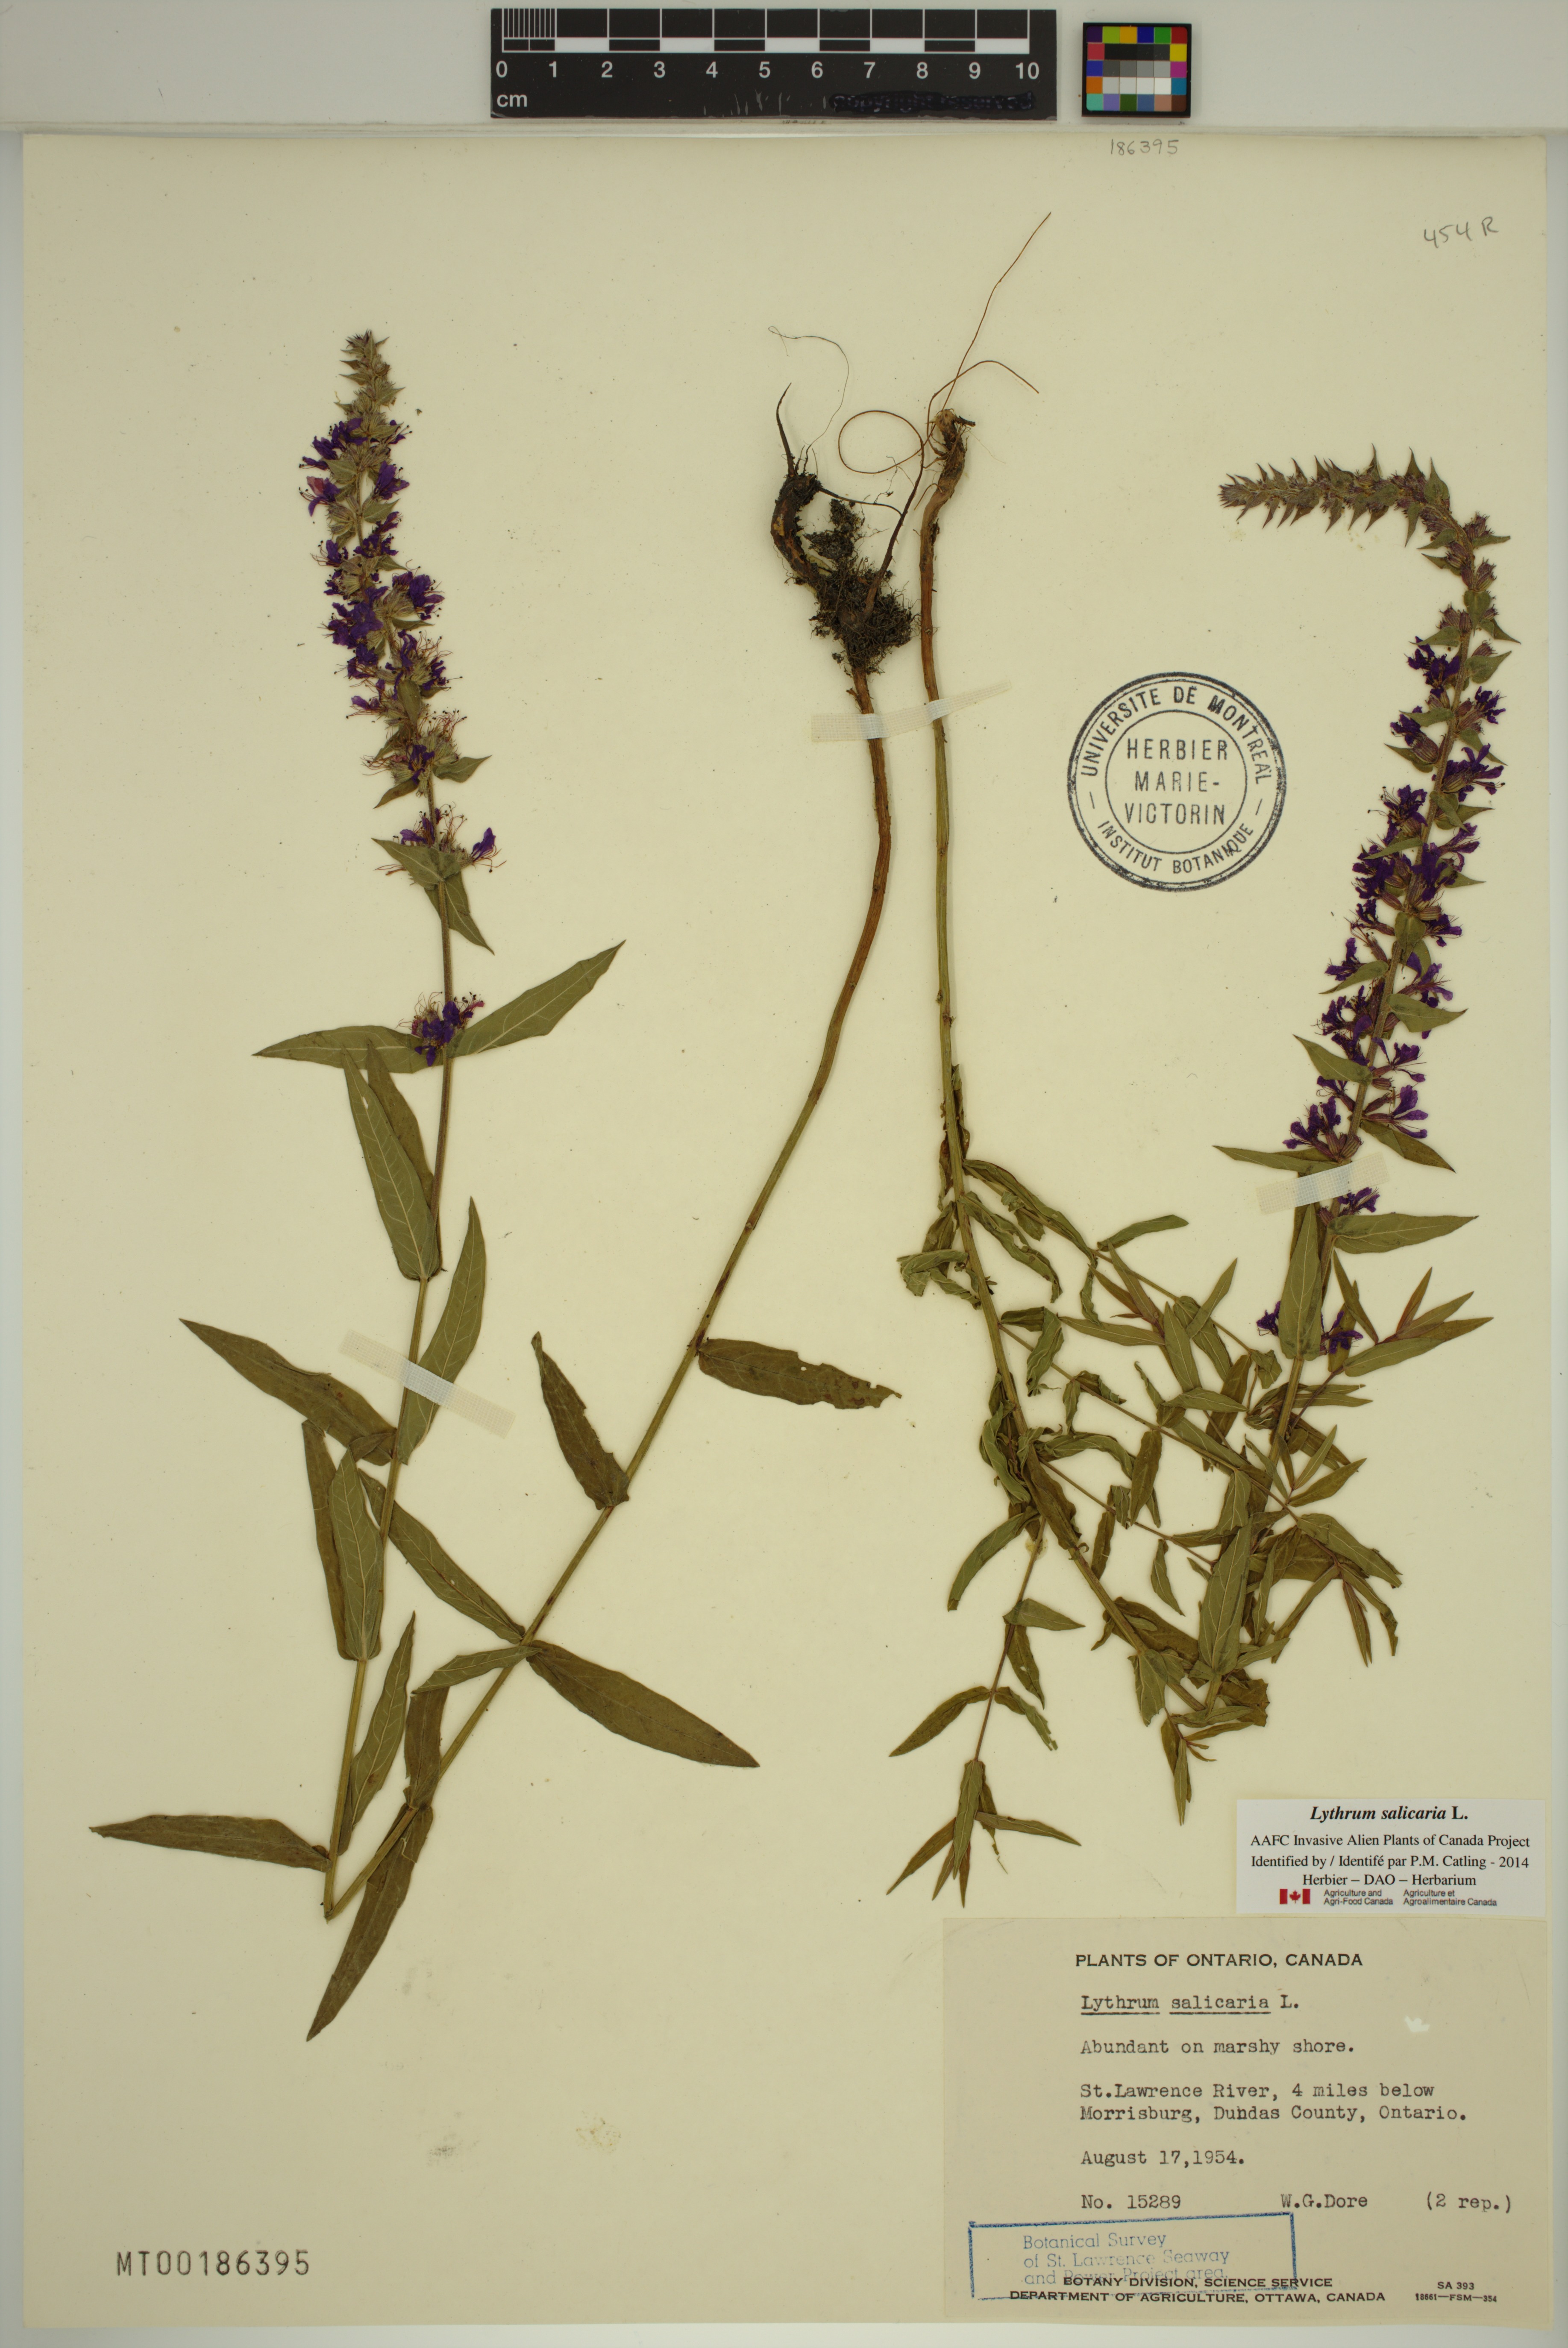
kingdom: Plantae
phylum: Tracheophyta
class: Magnoliopsida
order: Myrtales
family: Lythraceae
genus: Lythrum
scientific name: Lythrum salicaria
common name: Purple loosestrife
